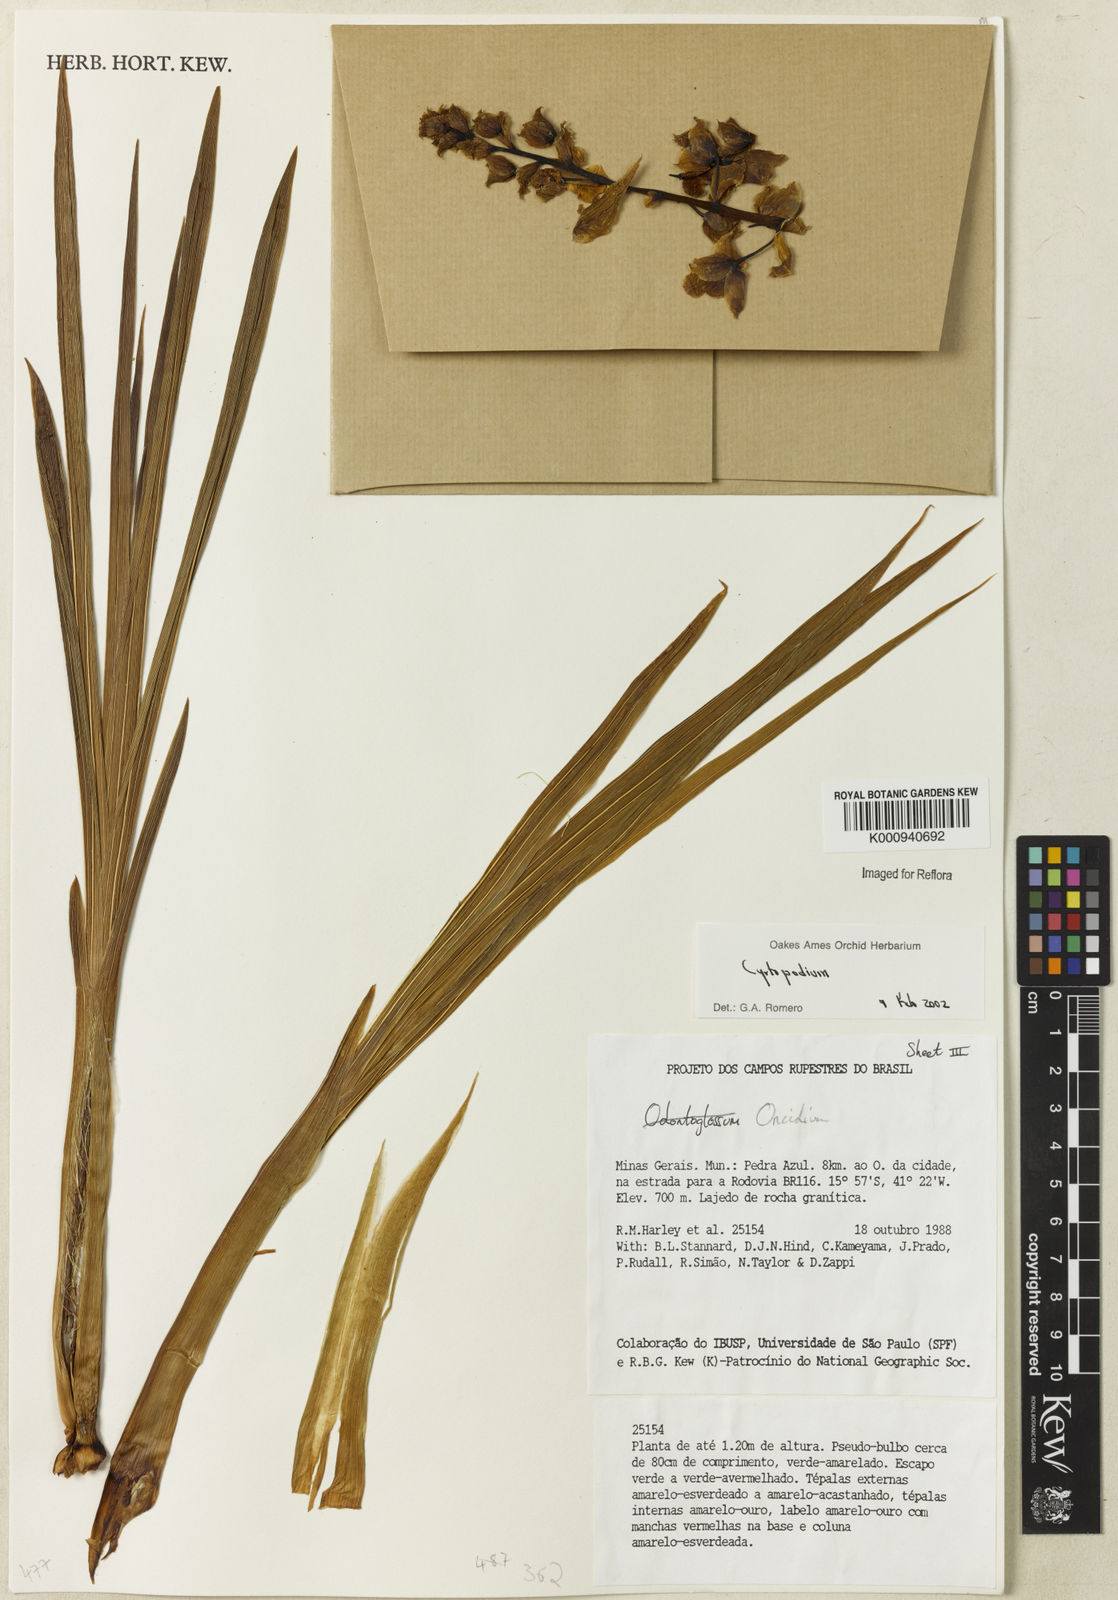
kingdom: Plantae
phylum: Tracheophyta
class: Liliopsida
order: Asparagales
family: Orchidaceae
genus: Cyrtopodium
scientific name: Cyrtopodium
